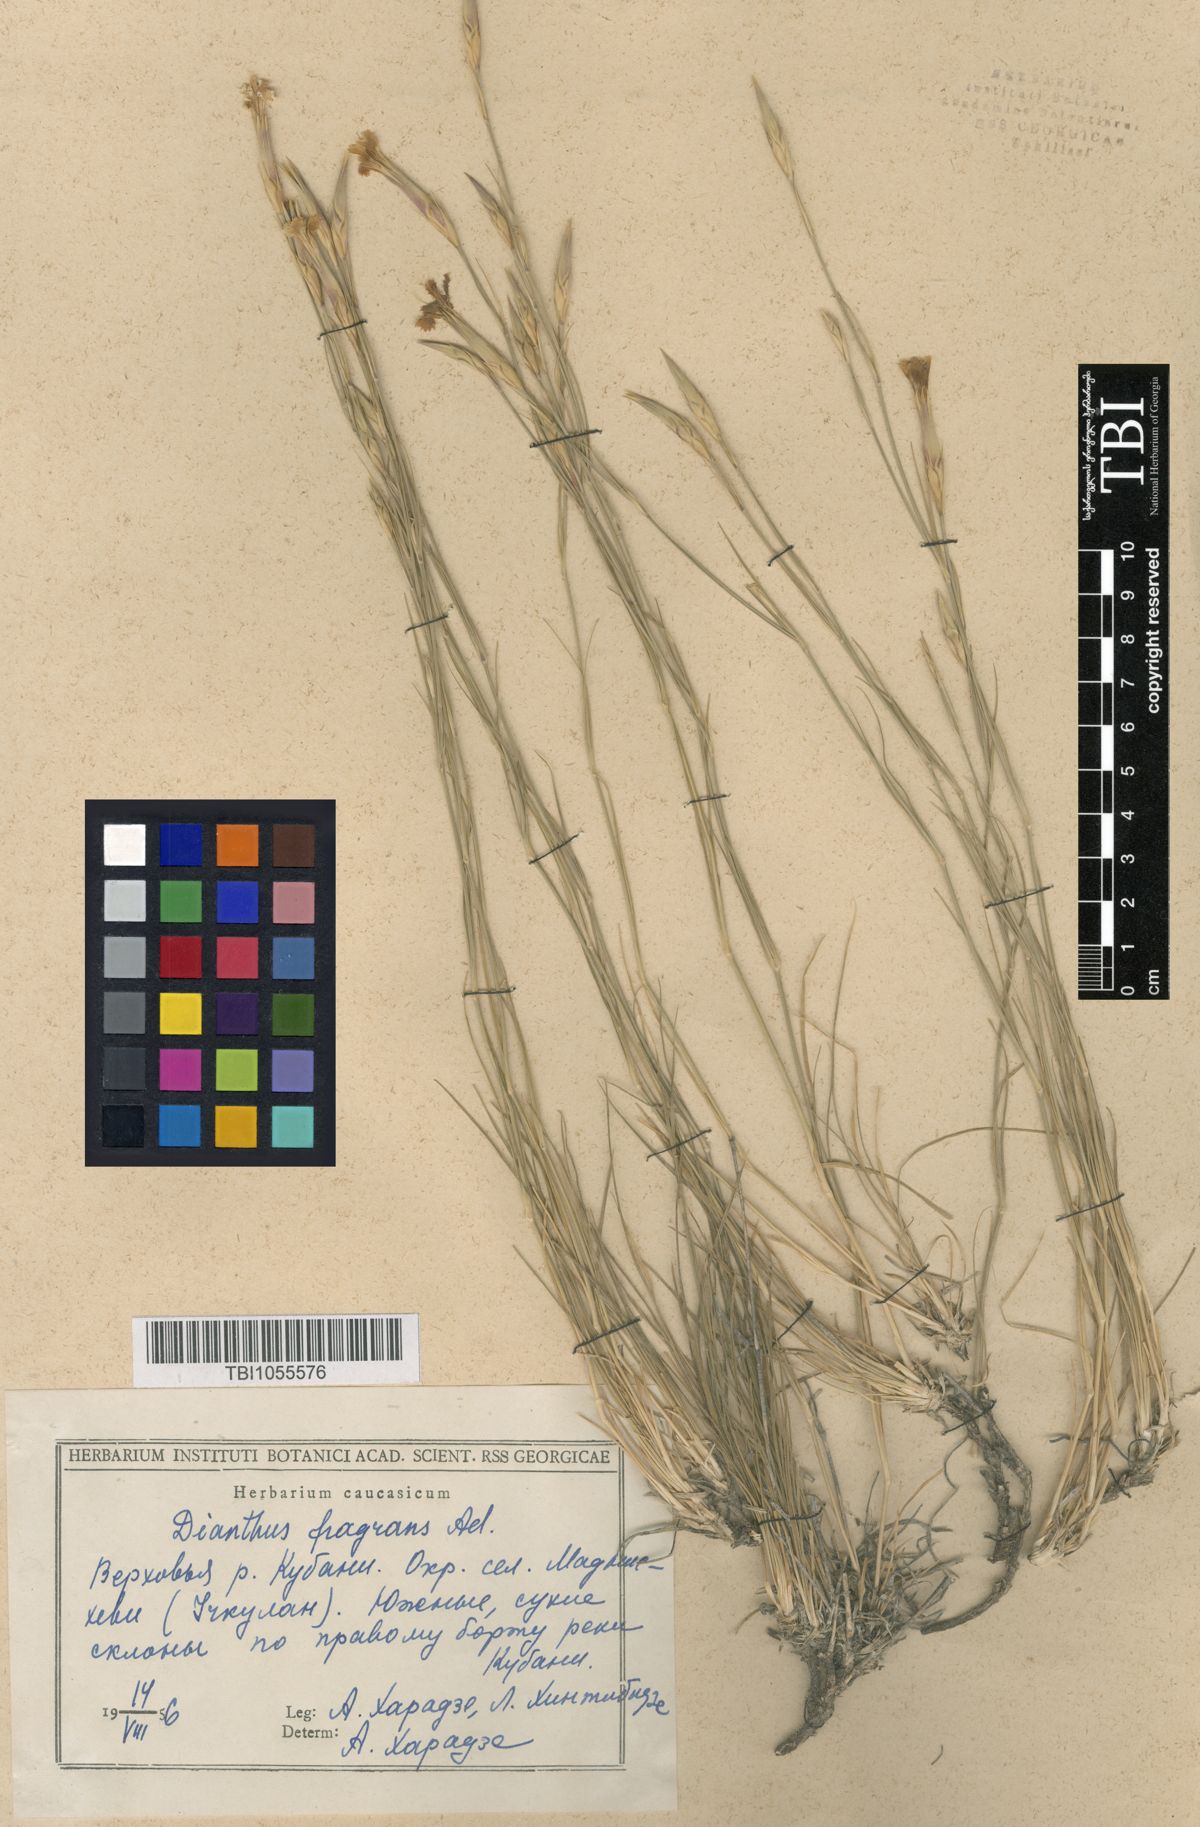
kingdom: Plantae
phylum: Tracheophyta
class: Magnoliopsida
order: Caryophyllales
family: Caryophyllaceae
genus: Dianthus
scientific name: Dianthus
